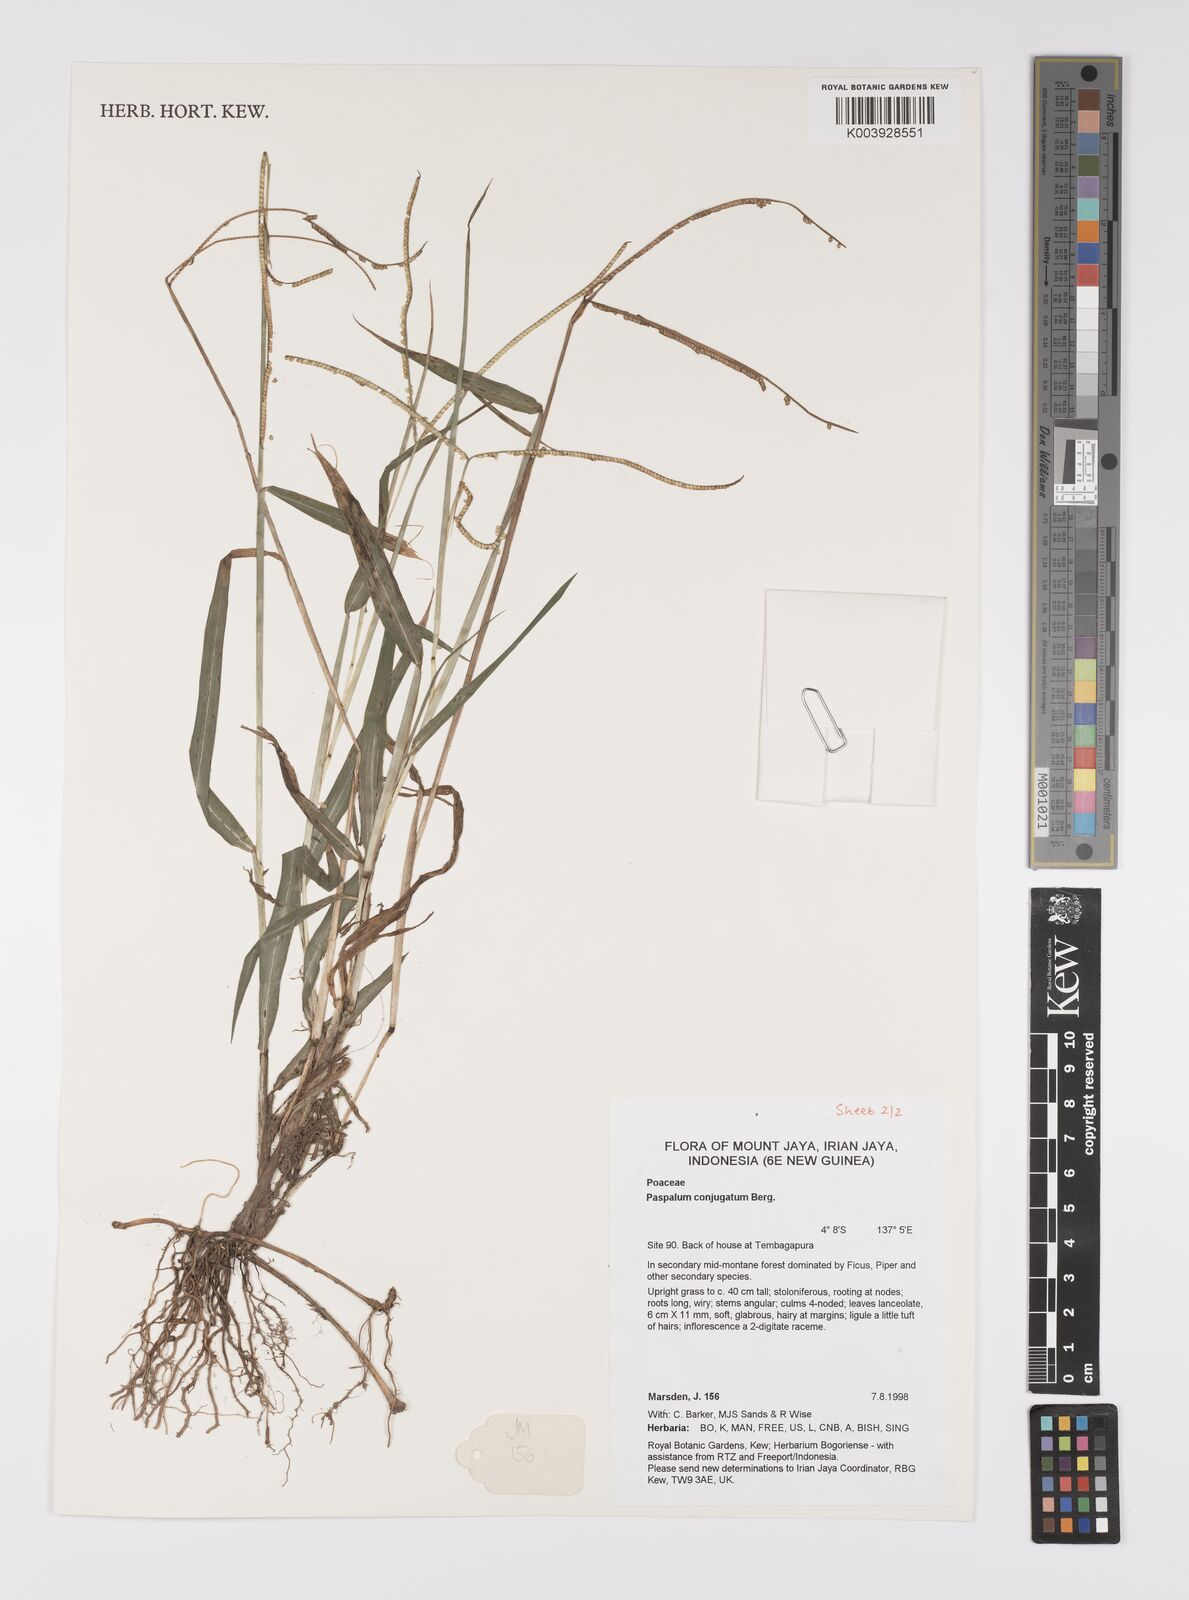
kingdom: Plantae
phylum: Tracheophyta
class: Liliopsida
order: Poales
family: Poaceae
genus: Paspalum
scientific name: Paspalum conjugatum
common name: Hilograss
